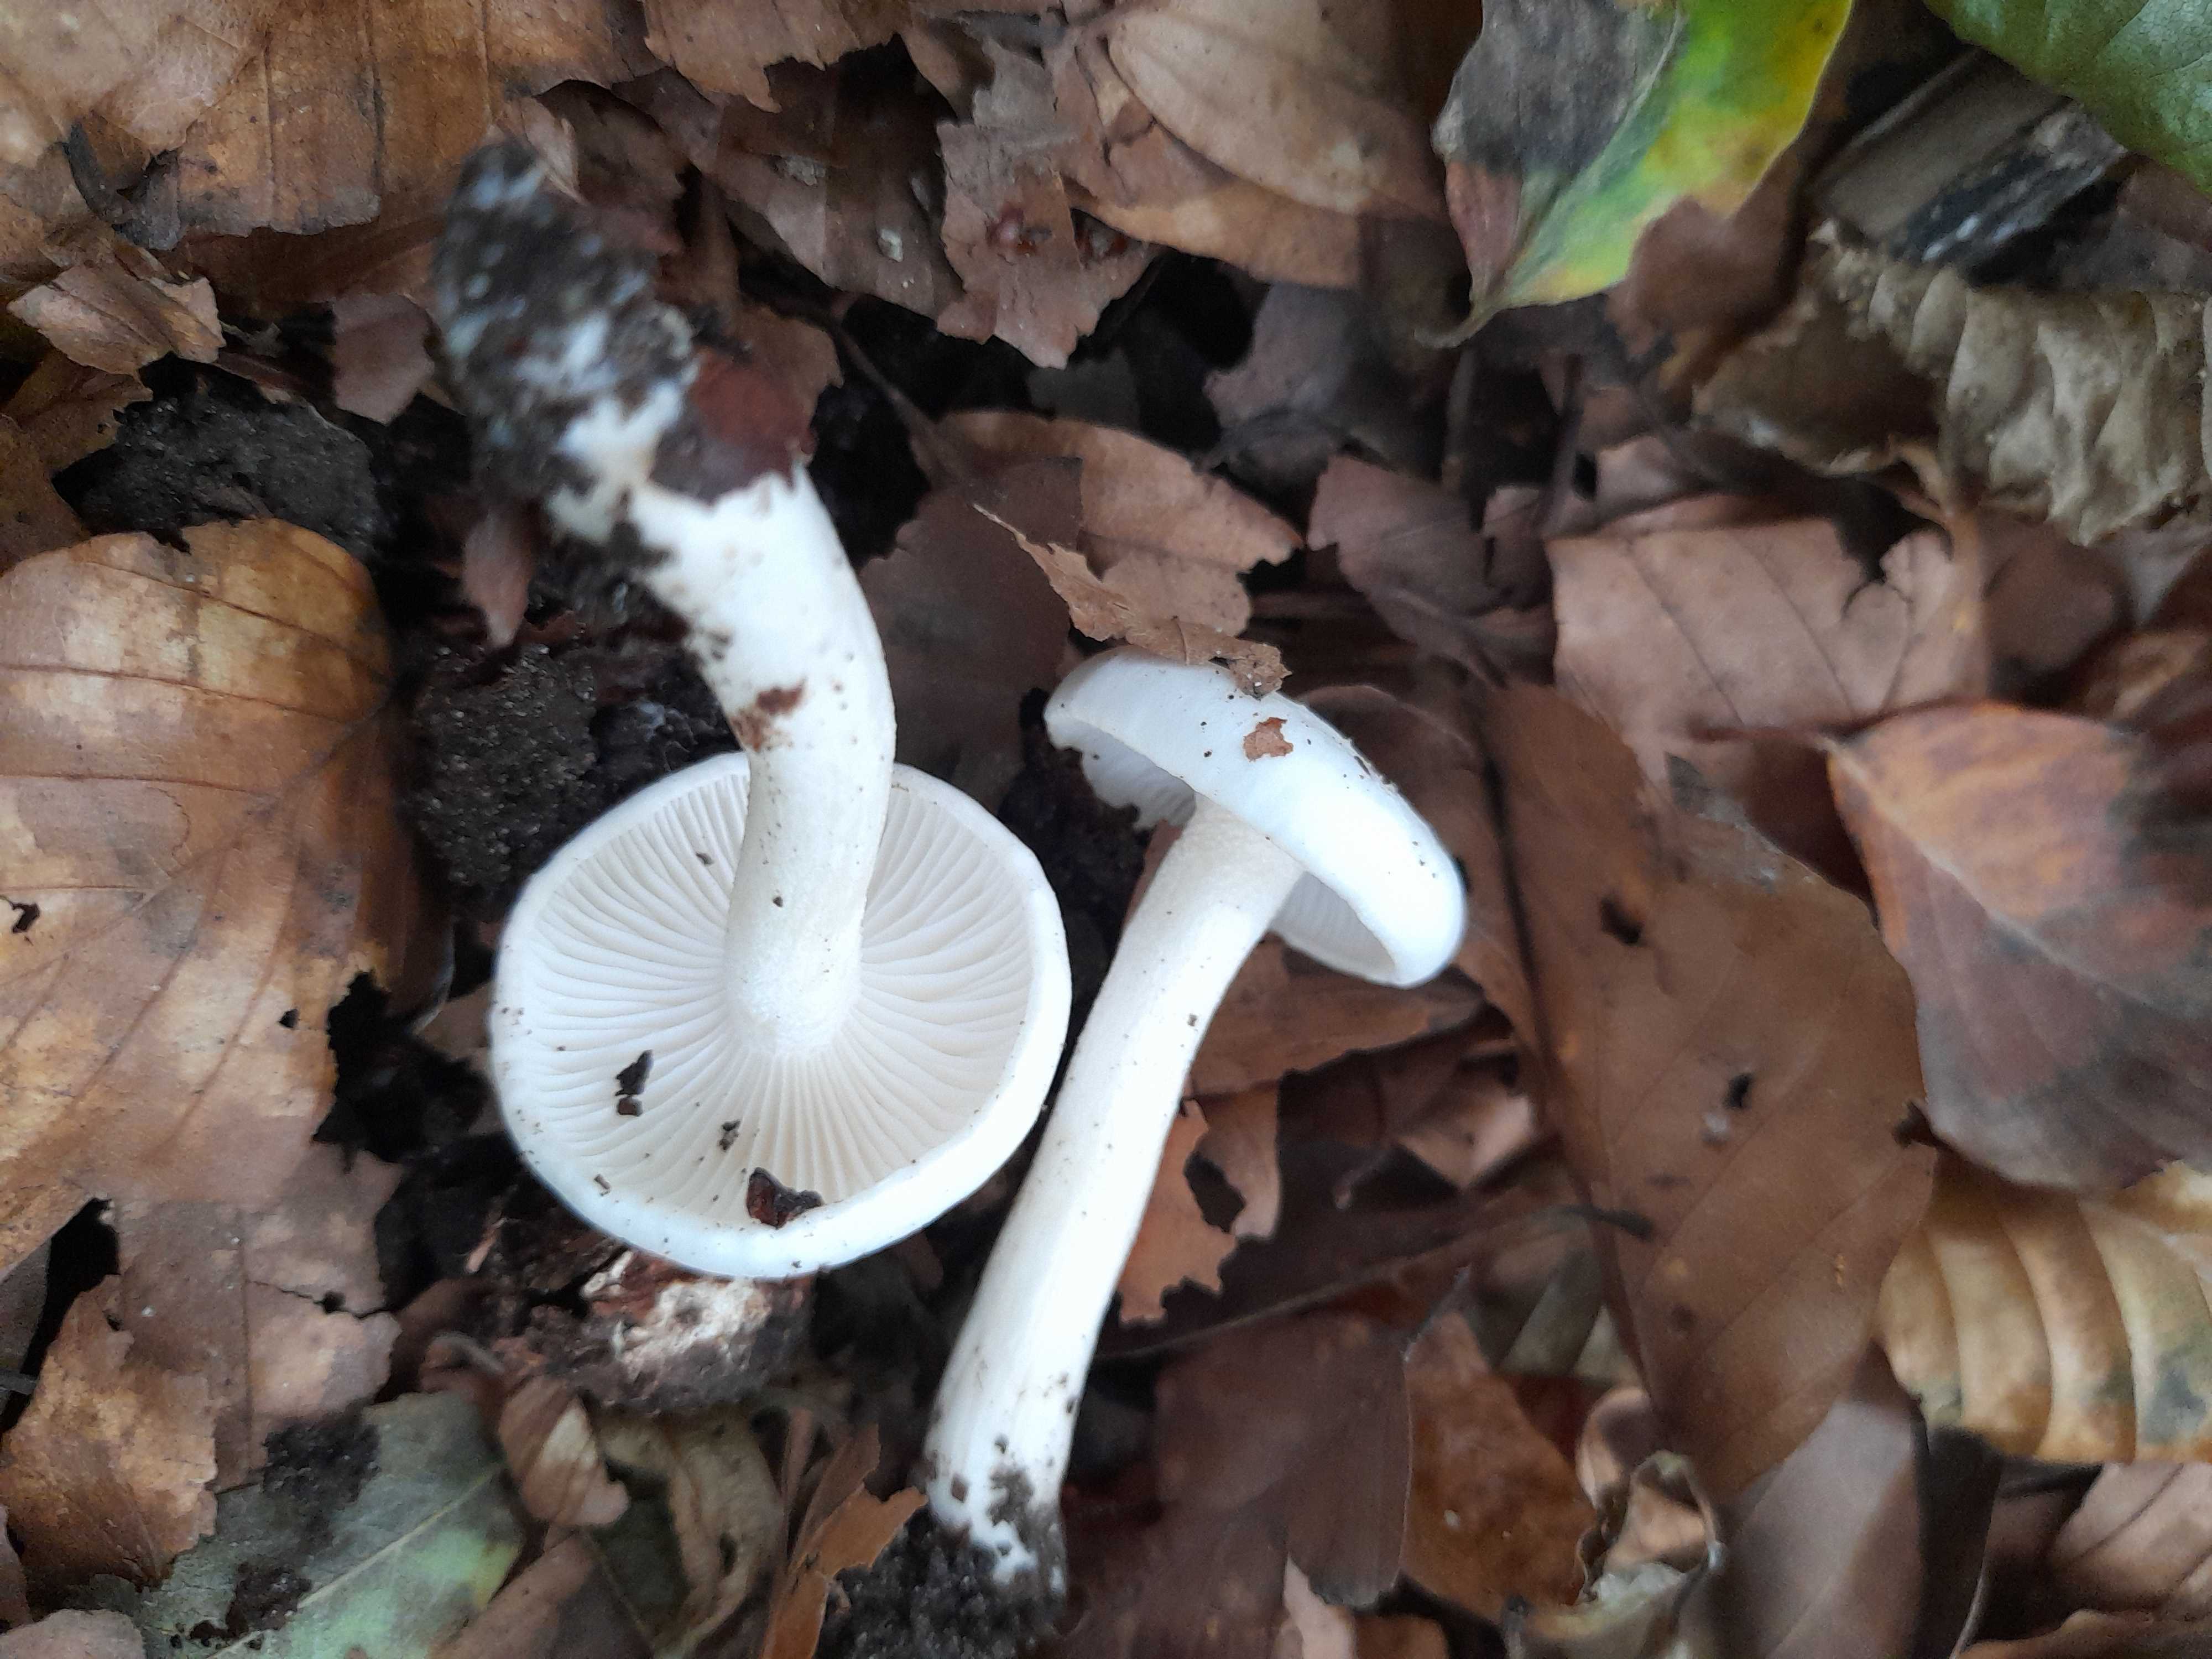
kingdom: Fungi
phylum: Basidiomycota
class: Agaricomycetes
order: Agaricales
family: Hygrophoraceae
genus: Hygrophorus
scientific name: Hygrophorus eburneus
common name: elfenbens-sneglehat
